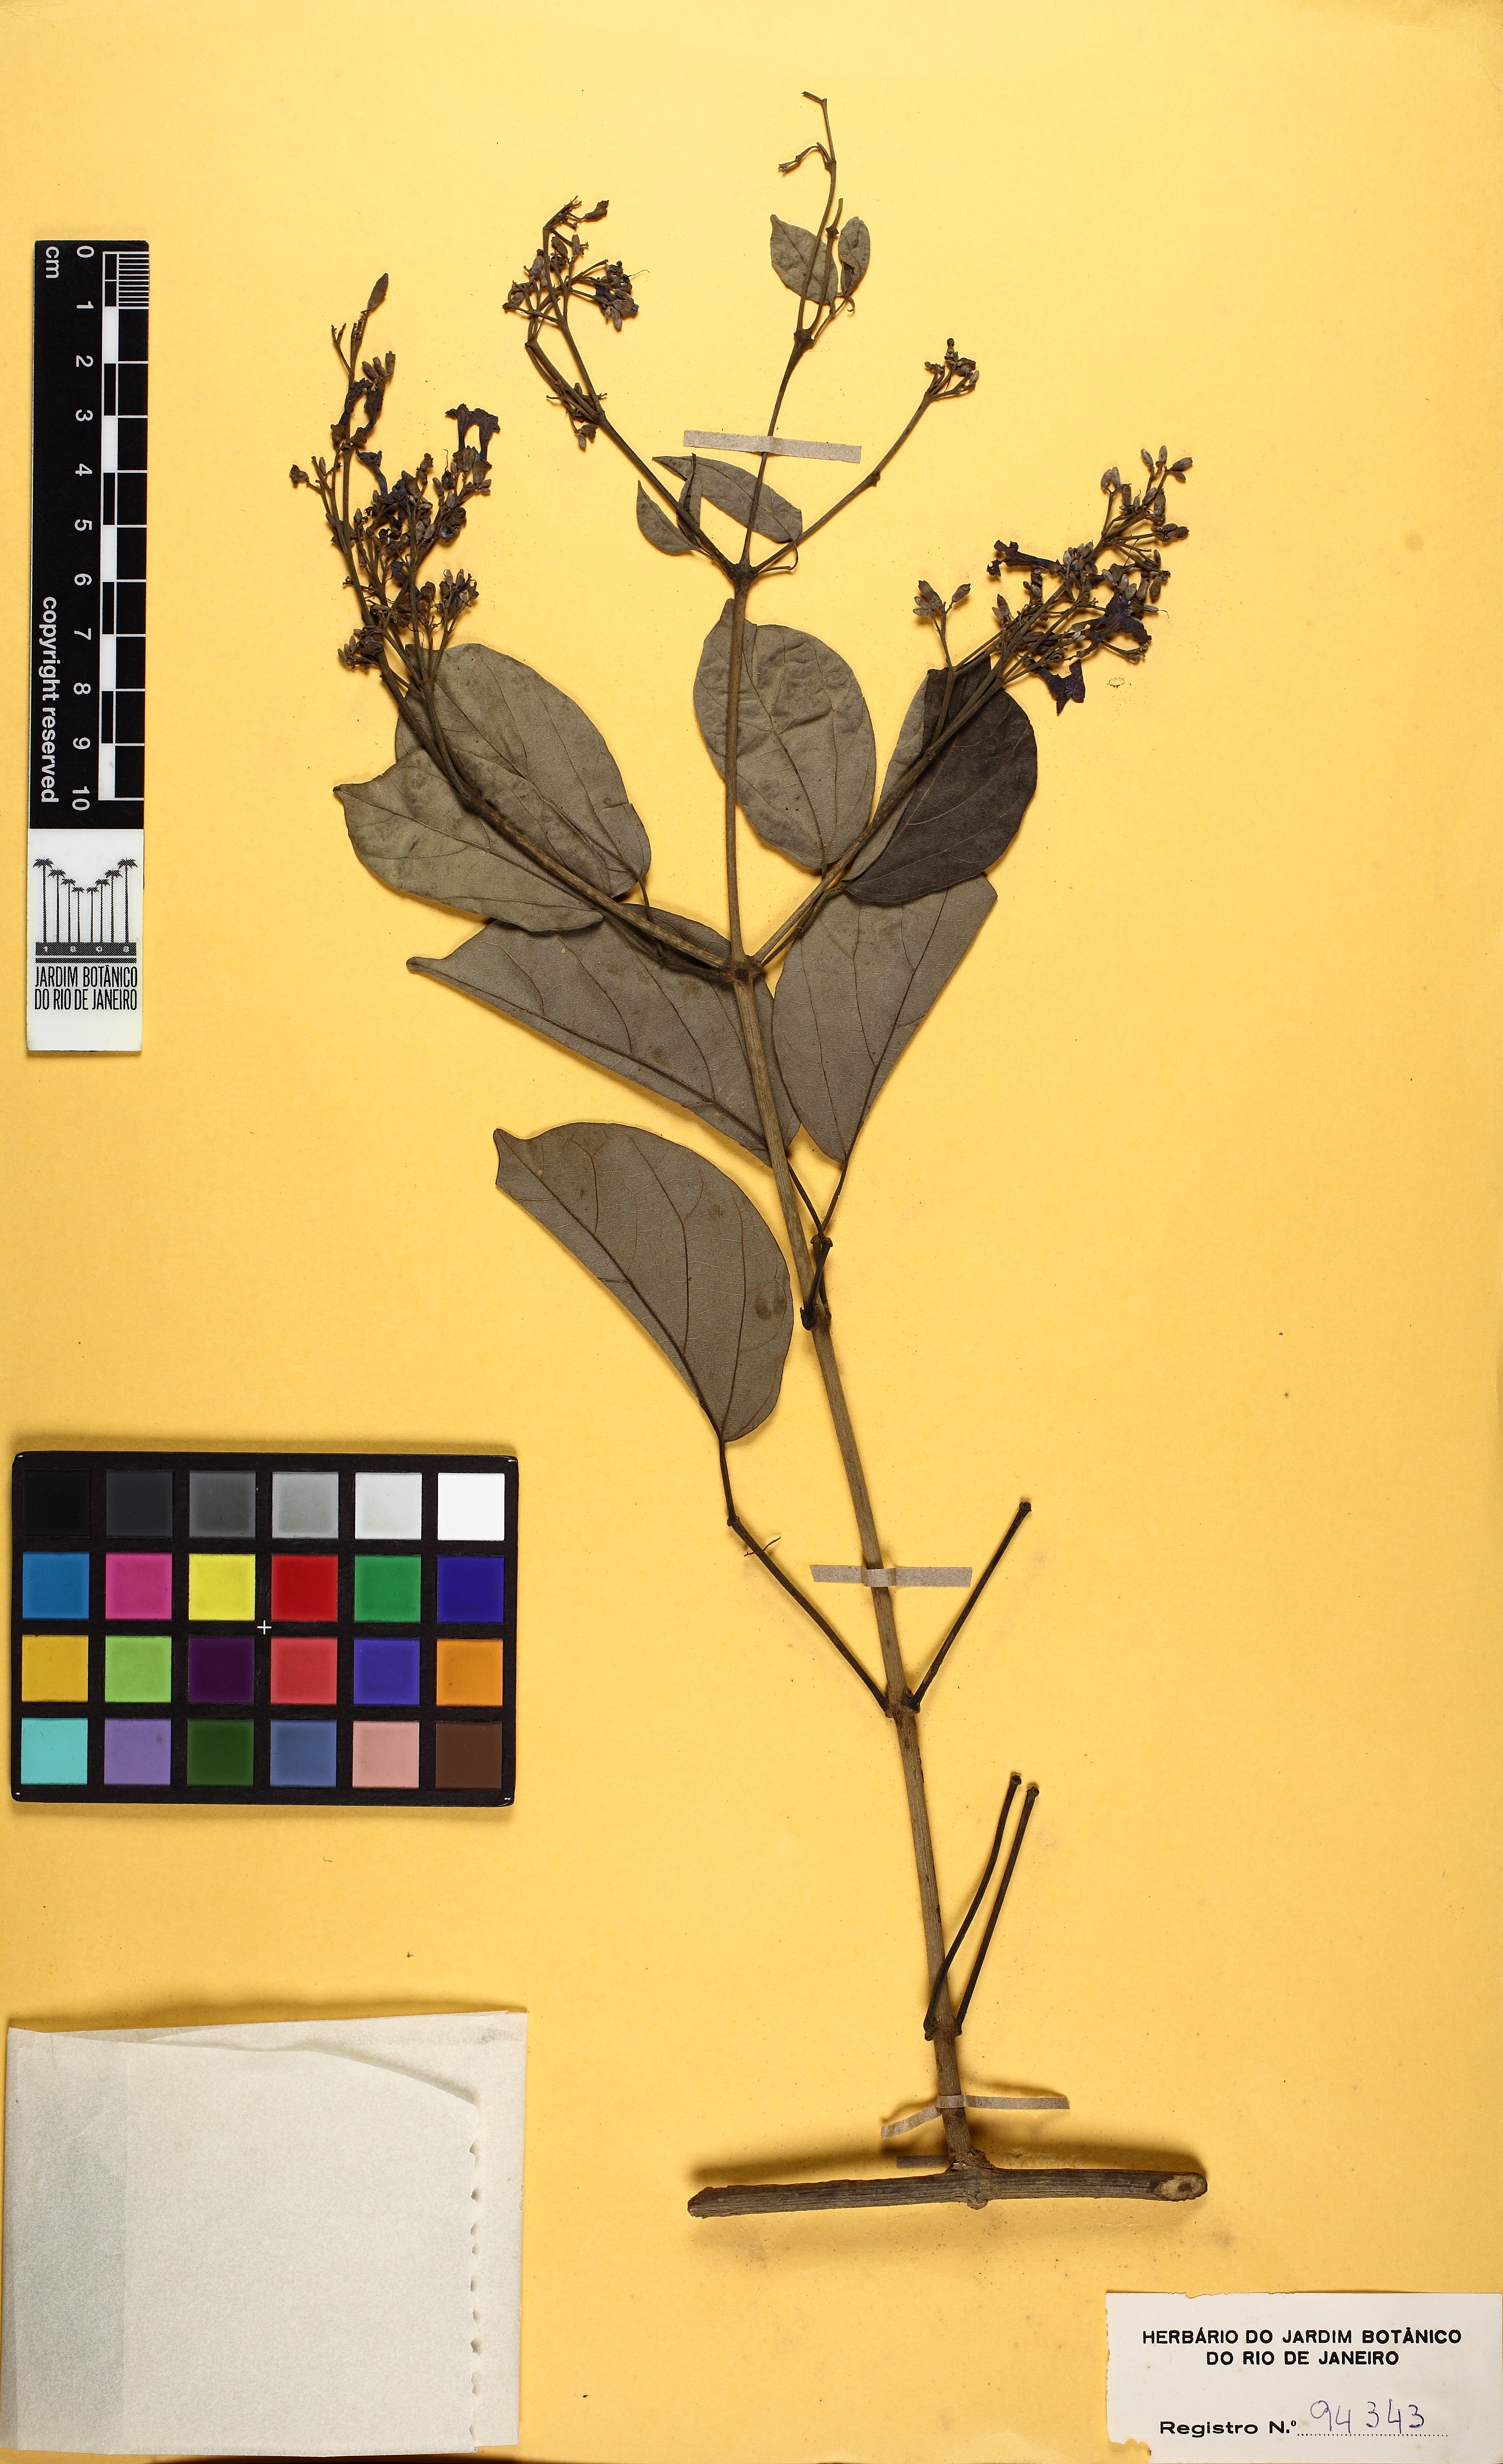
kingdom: Plantae
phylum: Tracheophyta
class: Magnoliopsida
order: Lamiales
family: Bignoniaceae
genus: Fridericia
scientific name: Fridericia subincana
